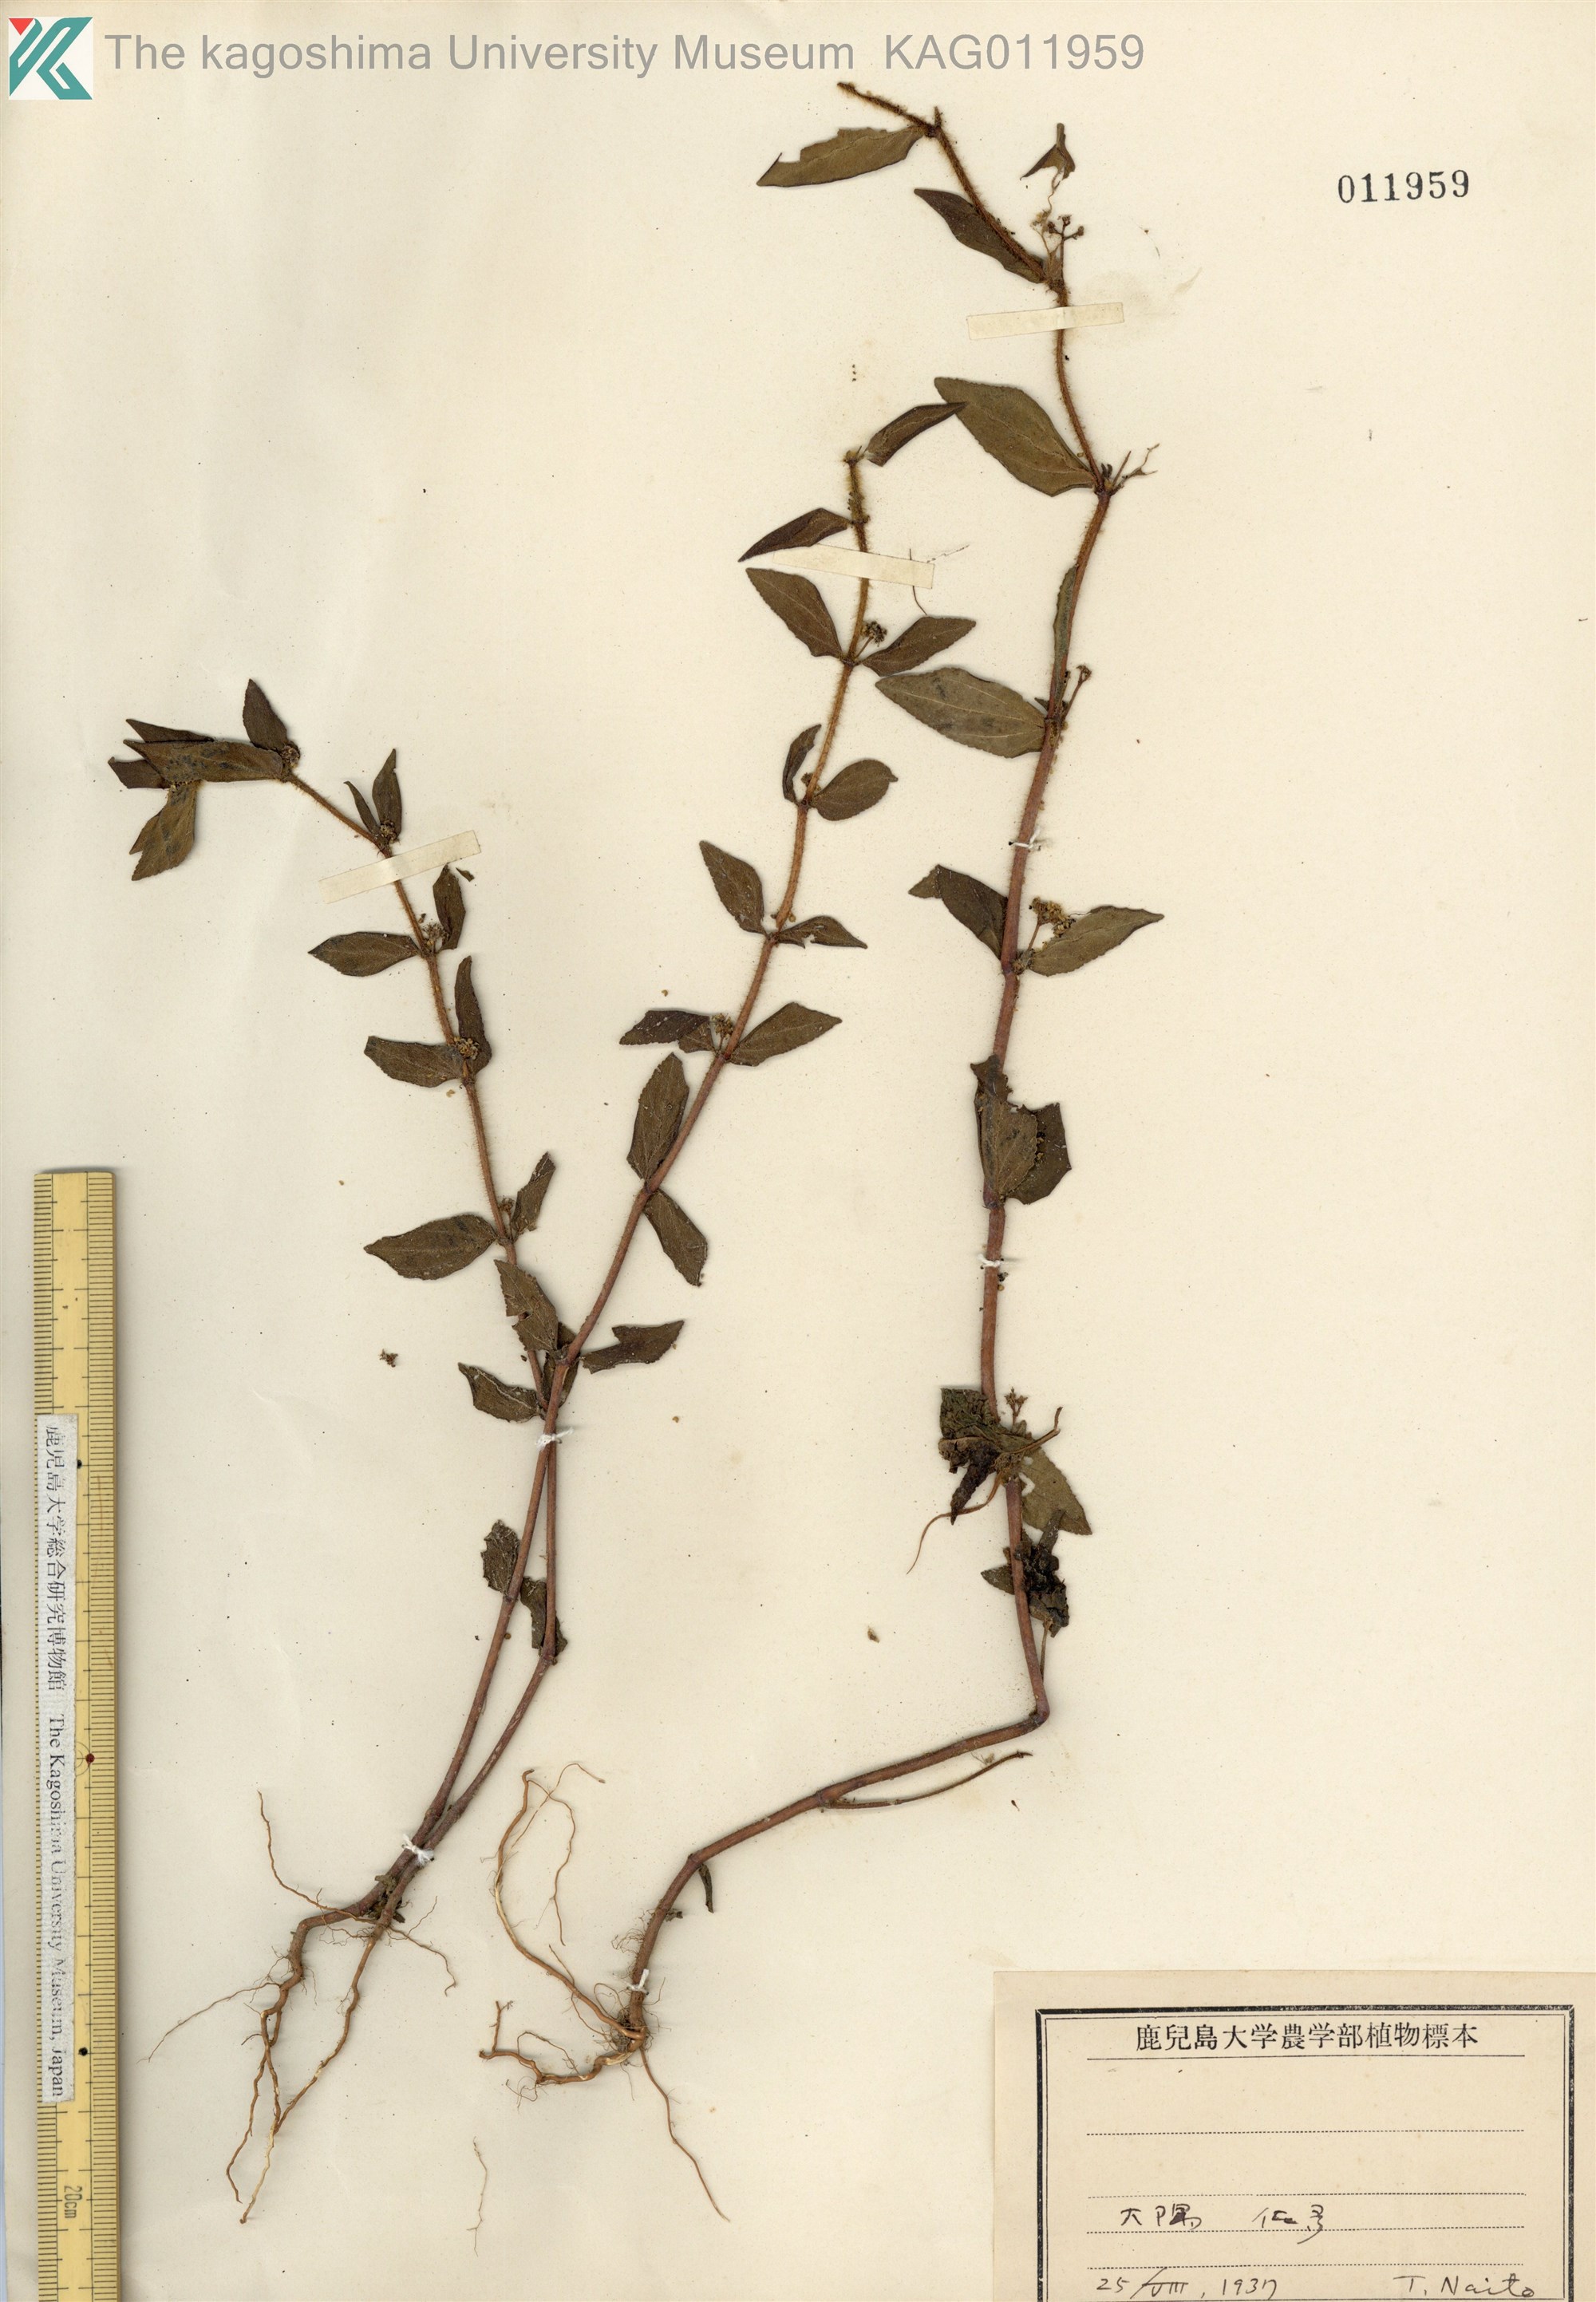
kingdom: Plantae
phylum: Tracheophyta
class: Magnoliopsida
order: Malpighiales
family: Euphorbiaceae
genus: Euphorbia
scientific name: Euphorbia hirta
